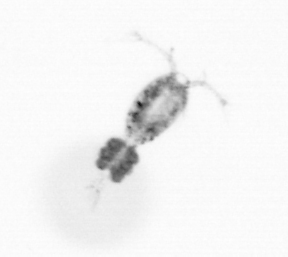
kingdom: Animalia
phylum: Arthropoda
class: Copepoda
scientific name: Copepoda
